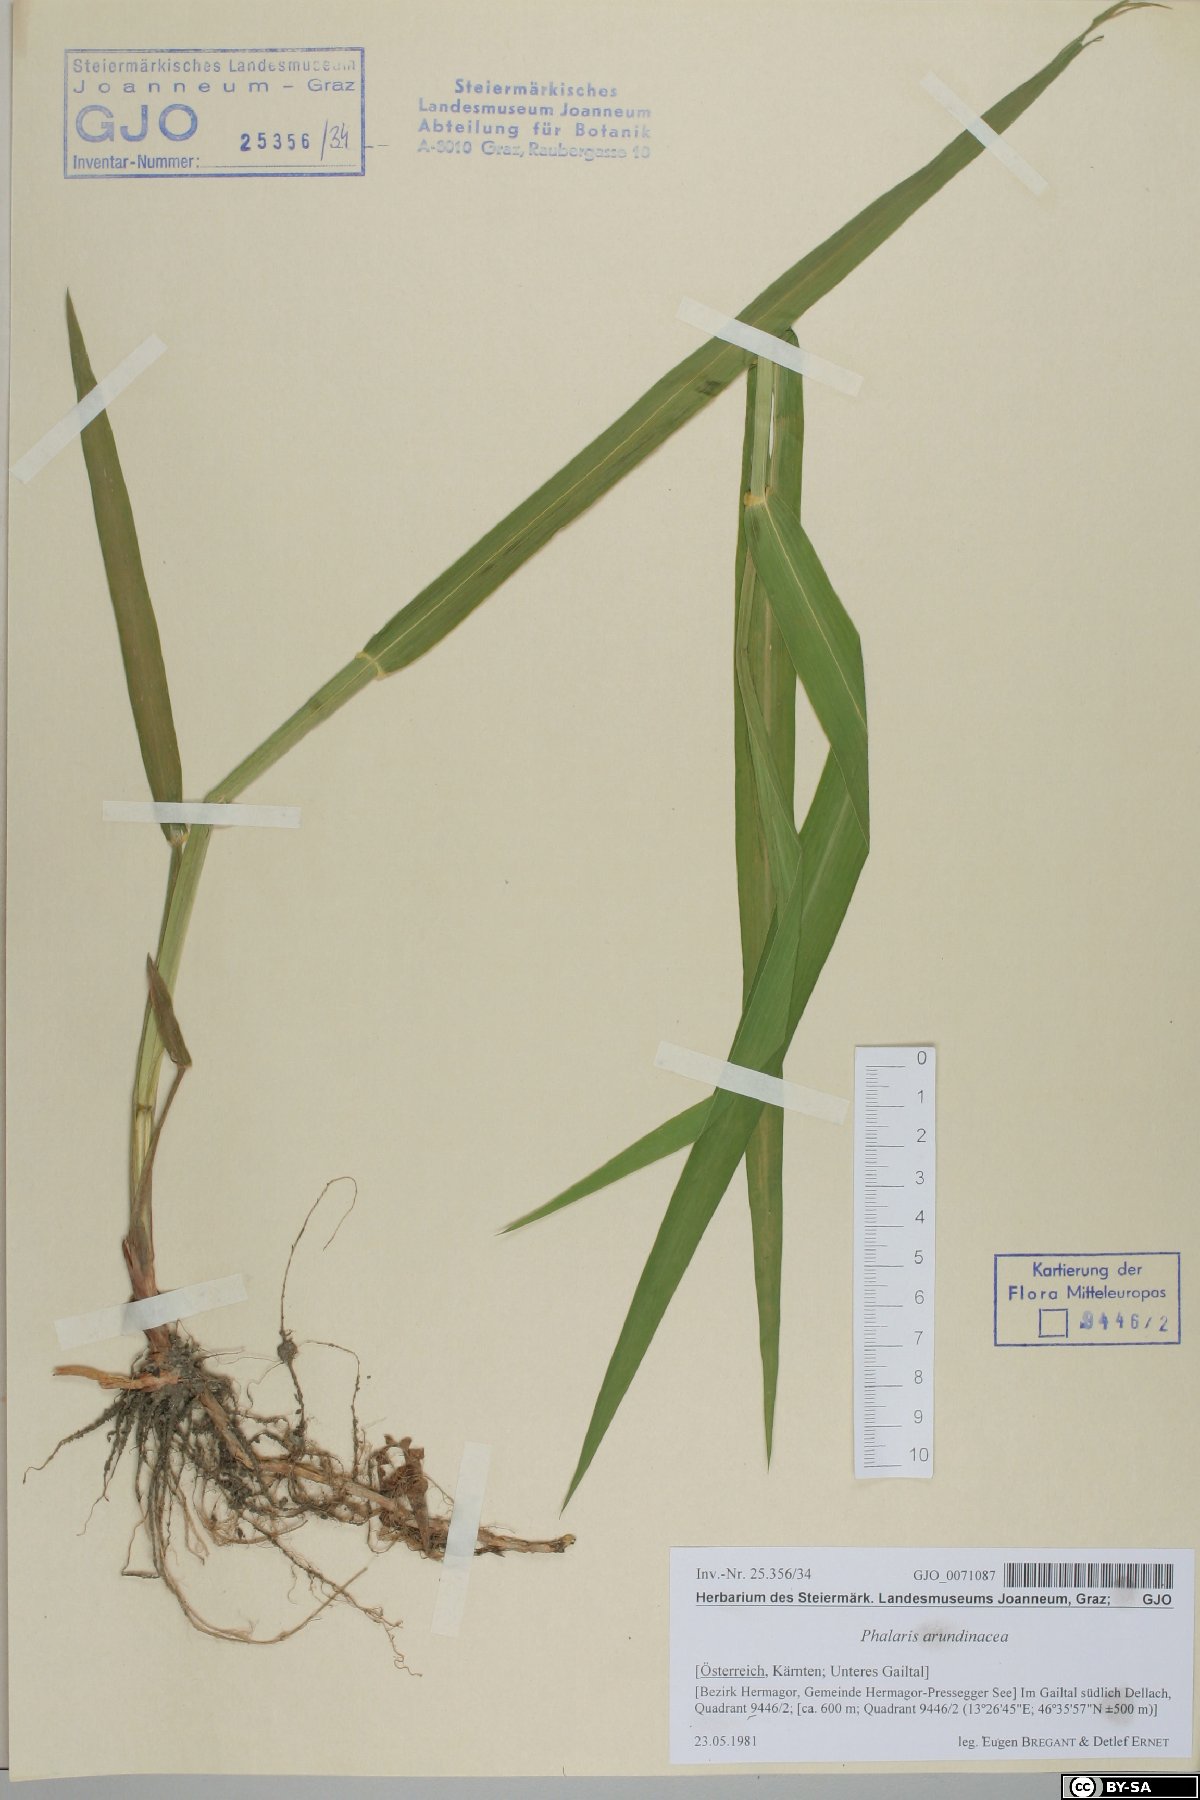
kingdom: Plantae
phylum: Tracheophyta
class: Liliopsida
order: Poales
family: Poaceae
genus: Phalaris
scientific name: Phalaris arundinacea
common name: Reed canary-grass
